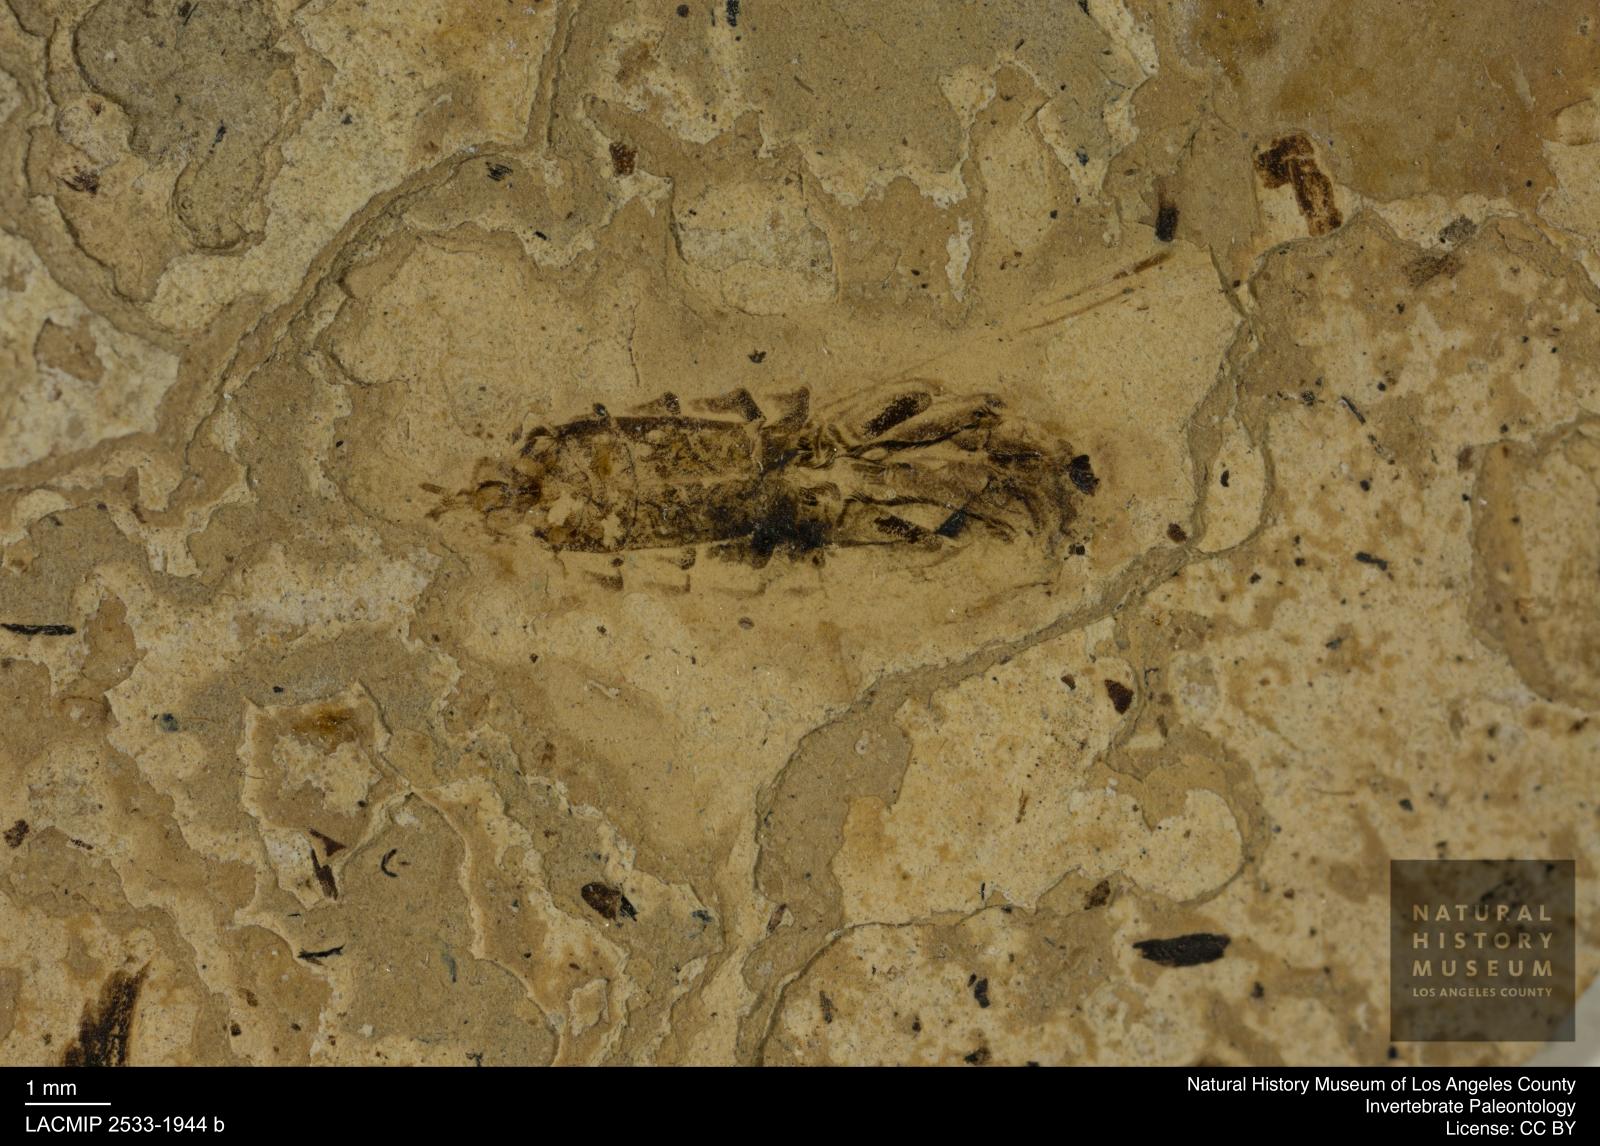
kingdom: Animalia
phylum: Arthropoda
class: Insecta
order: Hemiptera
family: Notonectidae
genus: Anisops
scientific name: Anisops Notonecta deichmuelleri
